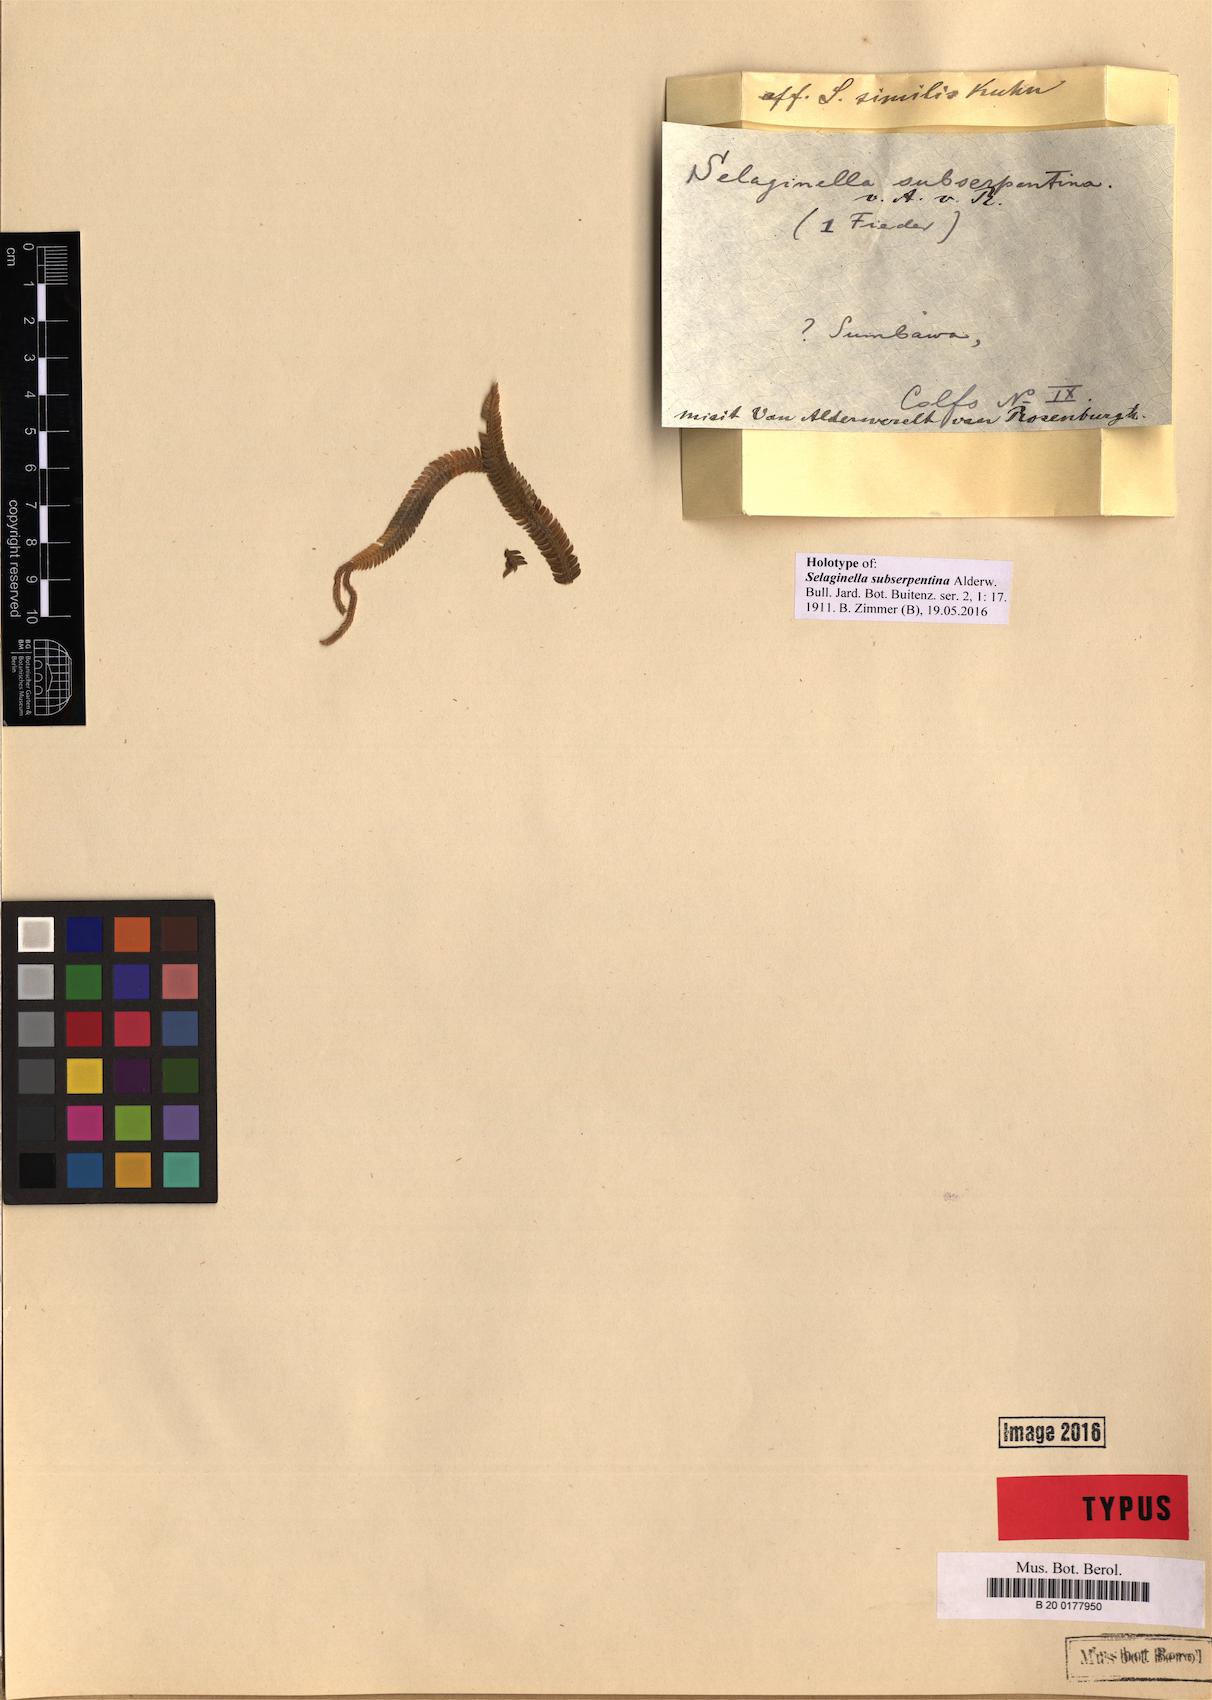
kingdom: Plantae
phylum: Tracheophyta
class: Lycopodiopsida
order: Selaginellales
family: Selaginellaceae
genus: Selaginella
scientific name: Selaginella subserpentina
